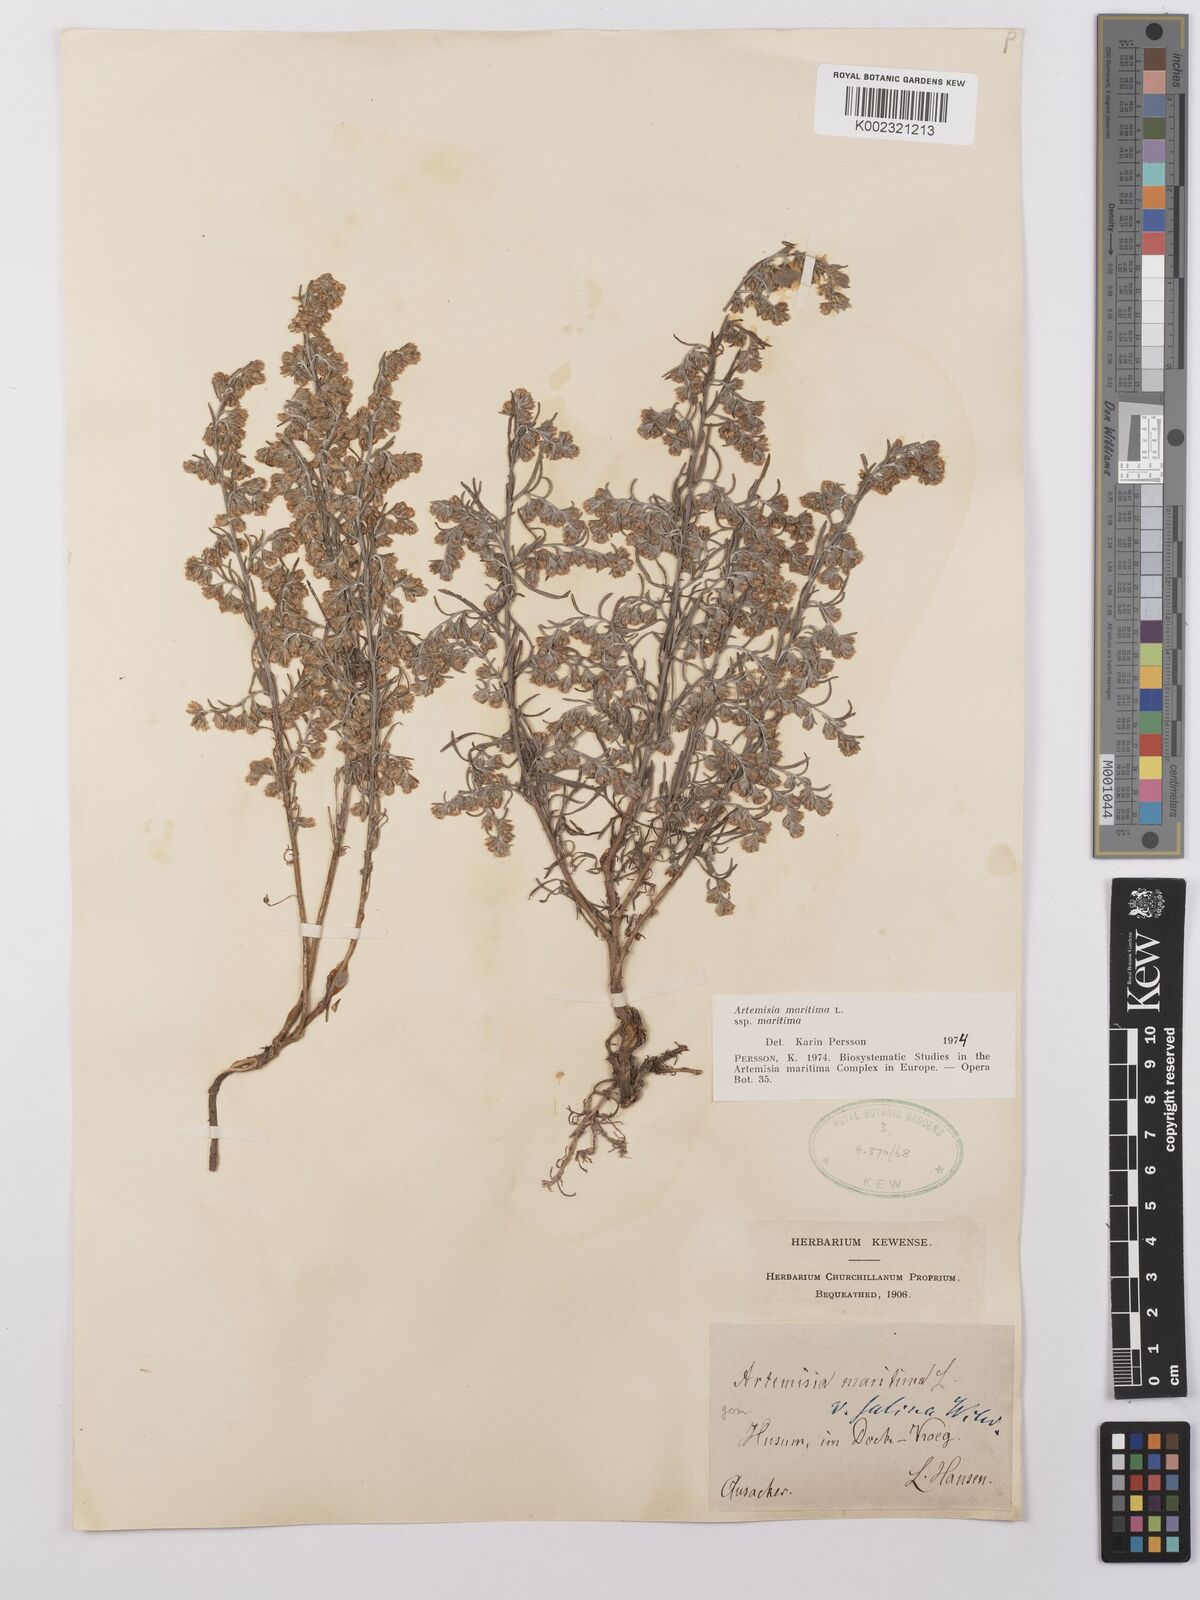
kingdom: Plantae
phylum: Tracheophyta
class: Magnoliopsida
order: Asterales
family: Asteraceae
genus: Artemisia
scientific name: Artemisia maritima
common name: Wormseed
